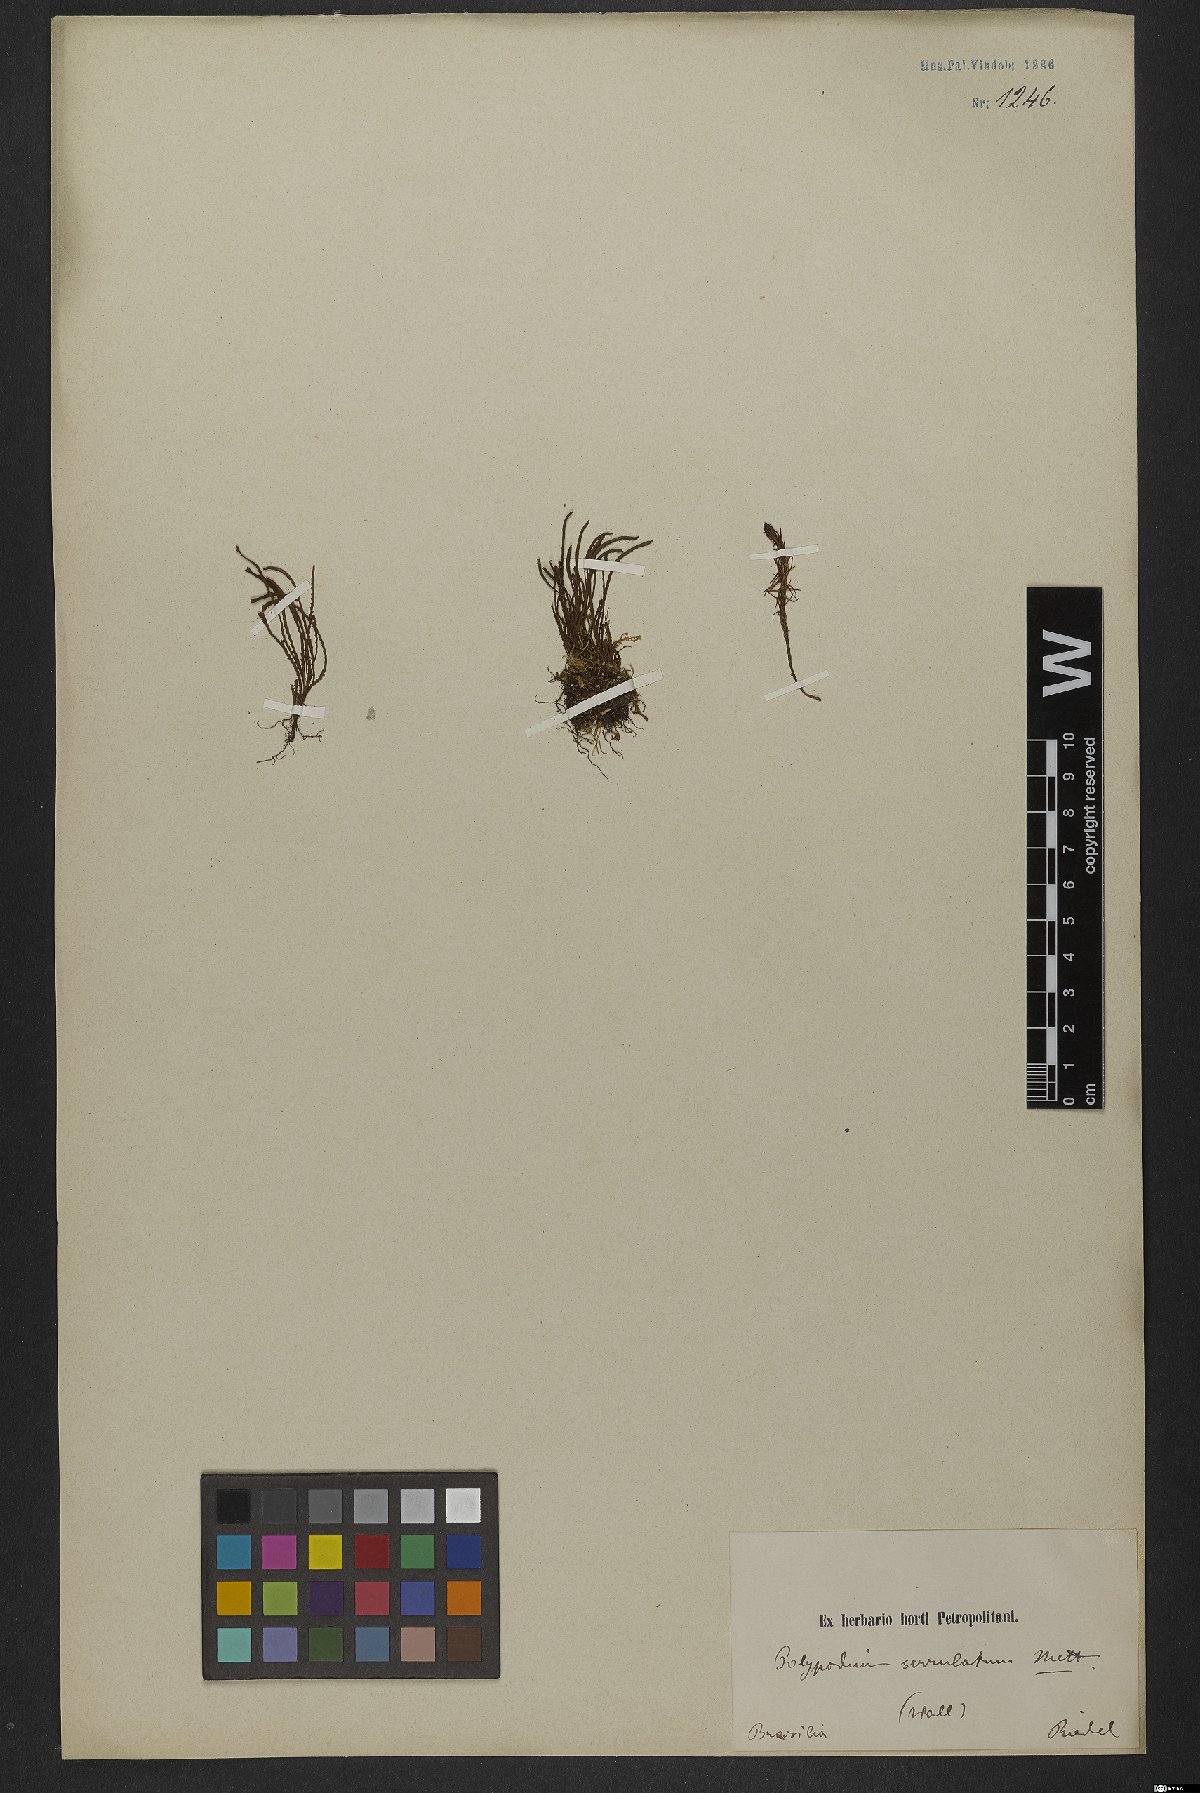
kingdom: Plantae
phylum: Tracheophyta
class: Polypodiopsida
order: Polypodiales
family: Polypodiaceae
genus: Cochlidium
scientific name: Cochlidium serrulatum
